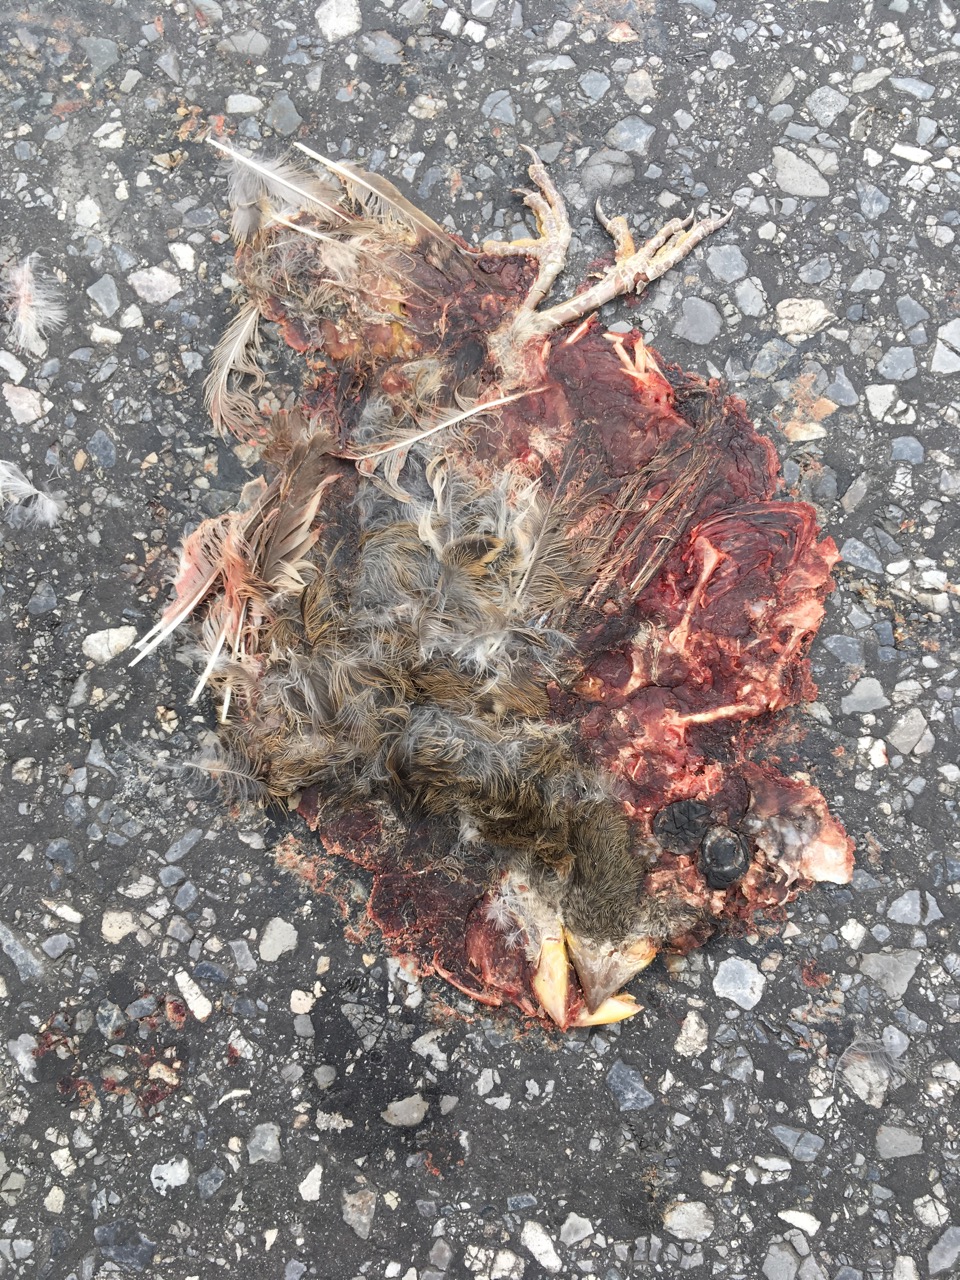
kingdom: Animalia
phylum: Chordata
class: Aves
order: Passeriformes
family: Passeridae
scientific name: Passeridae
